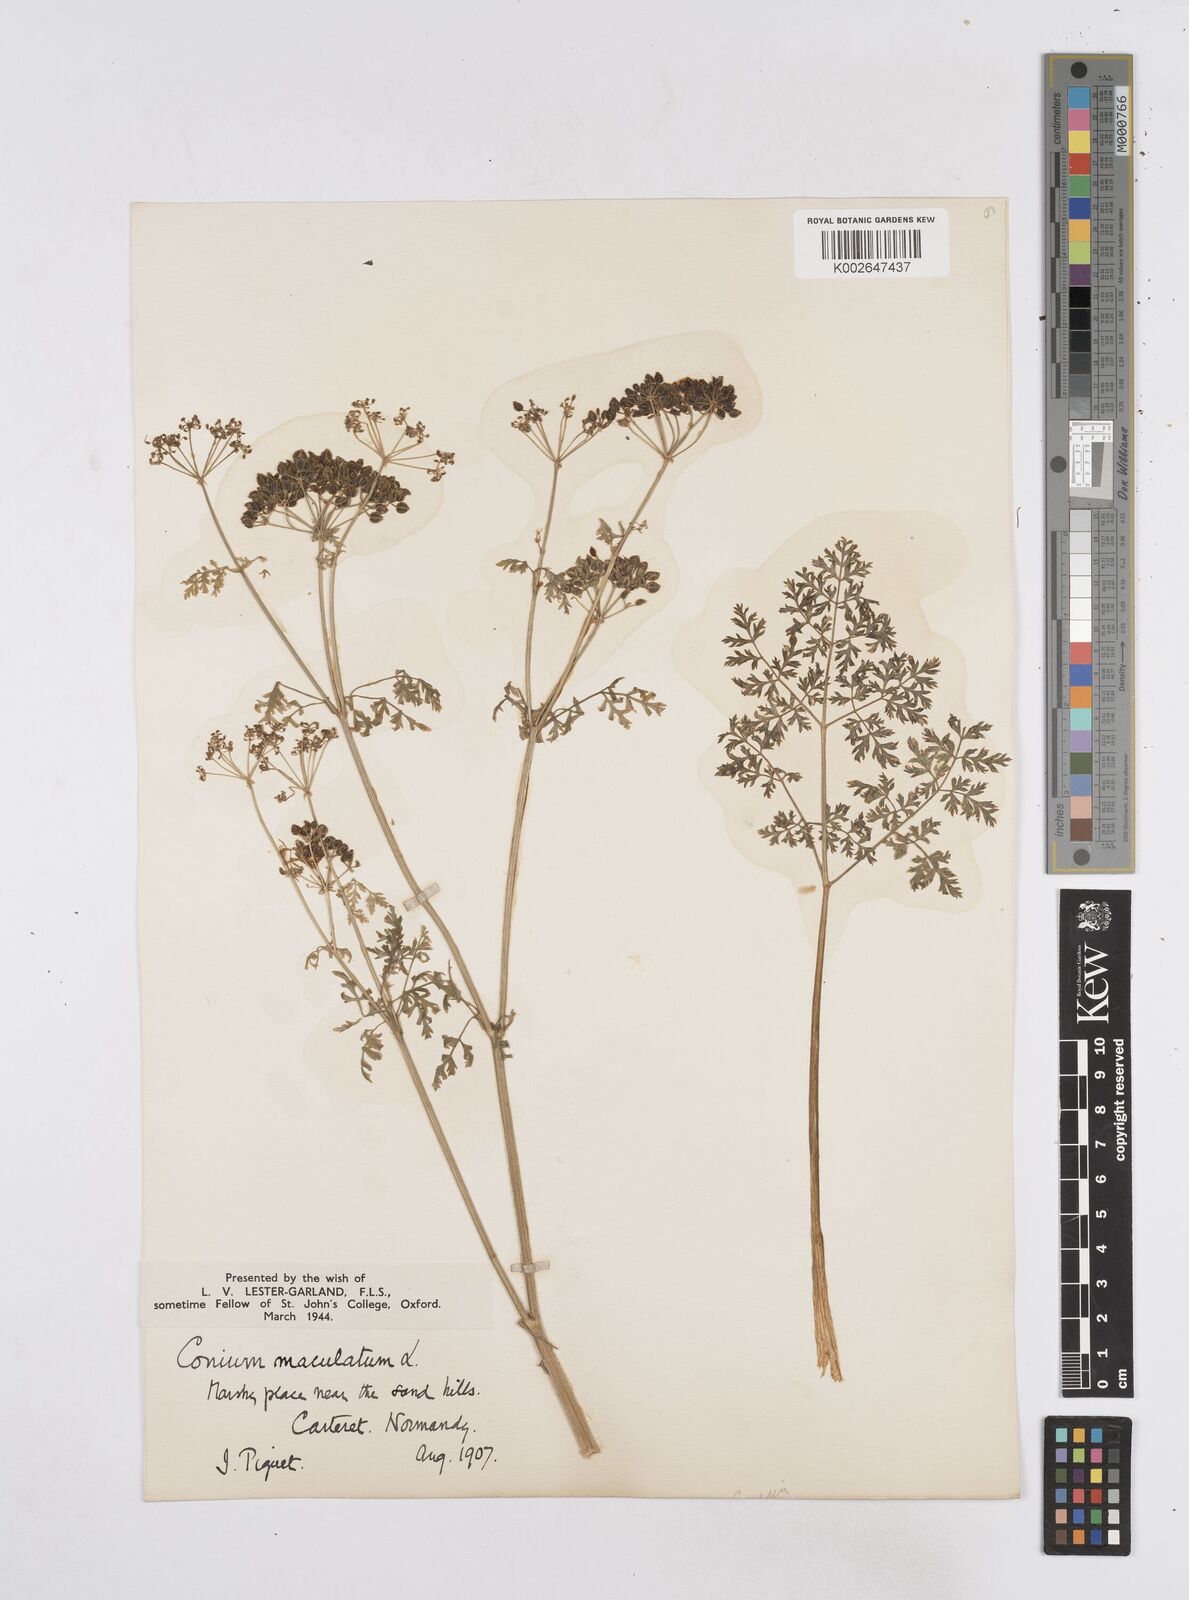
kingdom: Plantae
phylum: Tracheophyta
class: Magnoliopsida
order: Apiales
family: Apiaceae
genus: Conium
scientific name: Conium maculatum
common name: Hemlock
